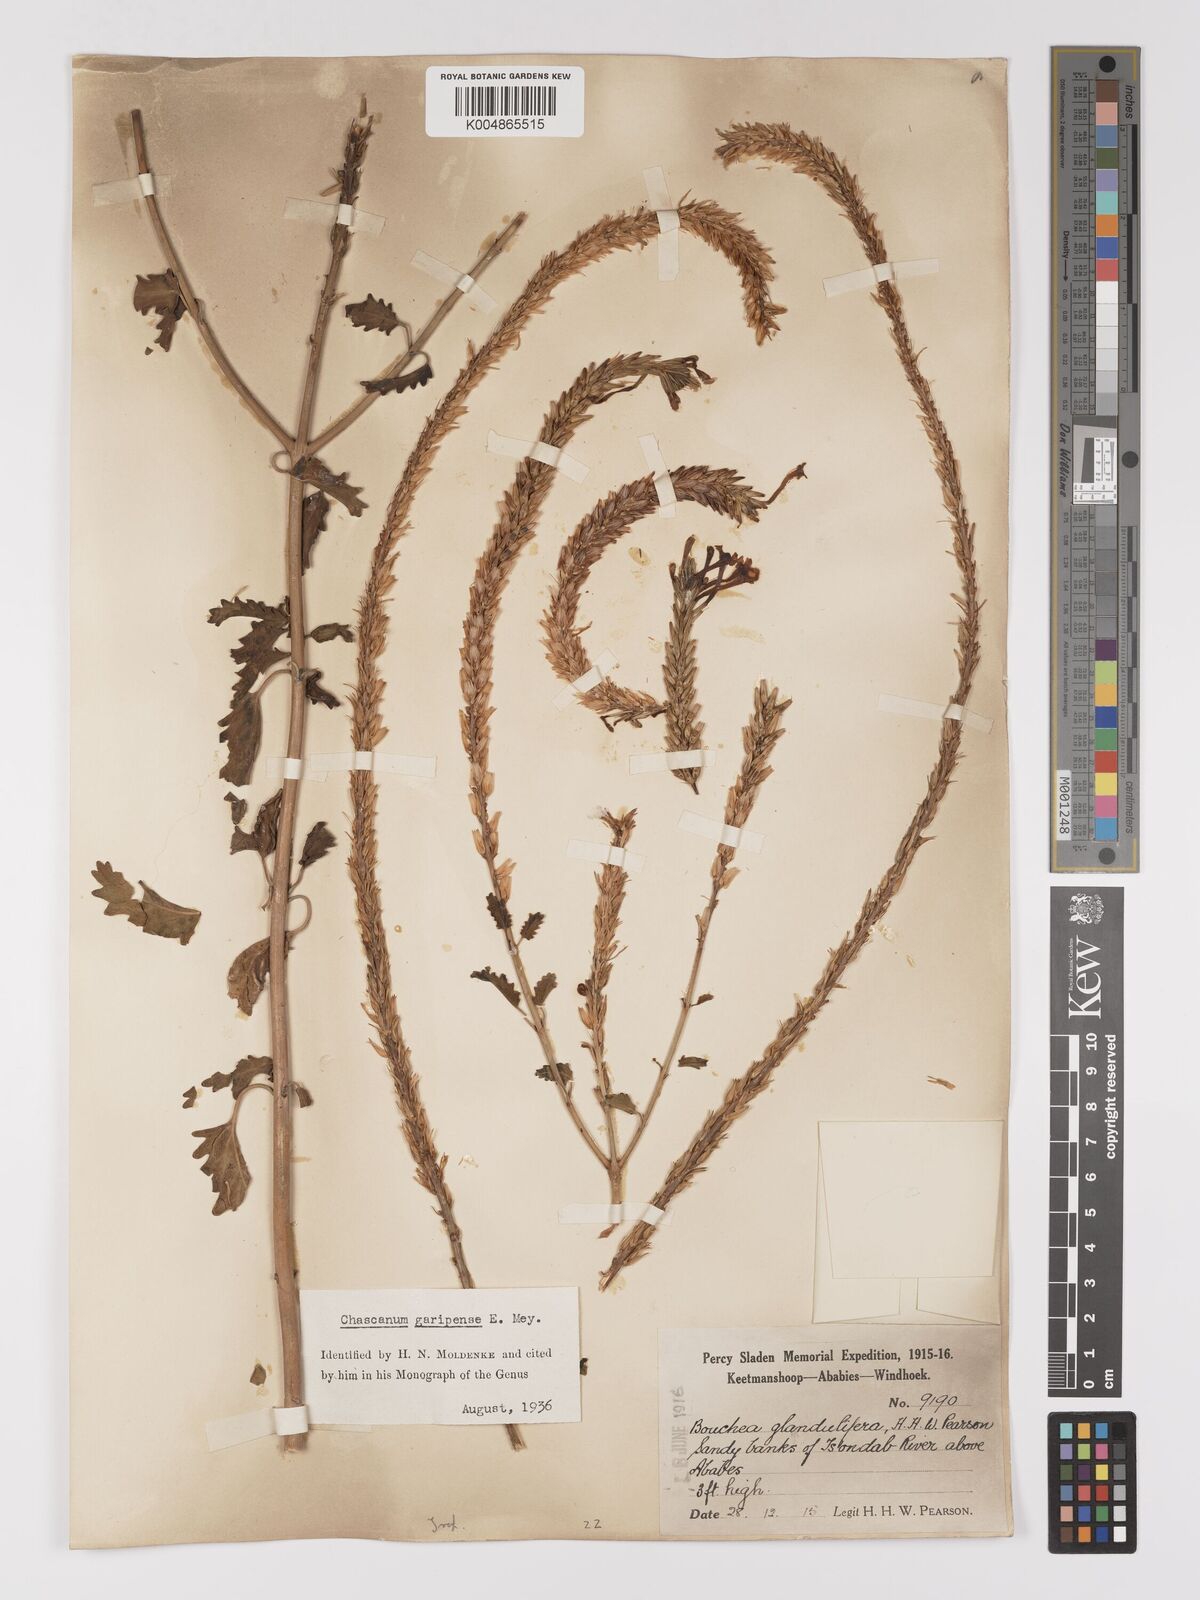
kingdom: Plantae
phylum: Tracheophyta
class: Magnoliopsida
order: Lamiales
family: Verbenaceae
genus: Chascanum
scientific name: Chascanum garipense
